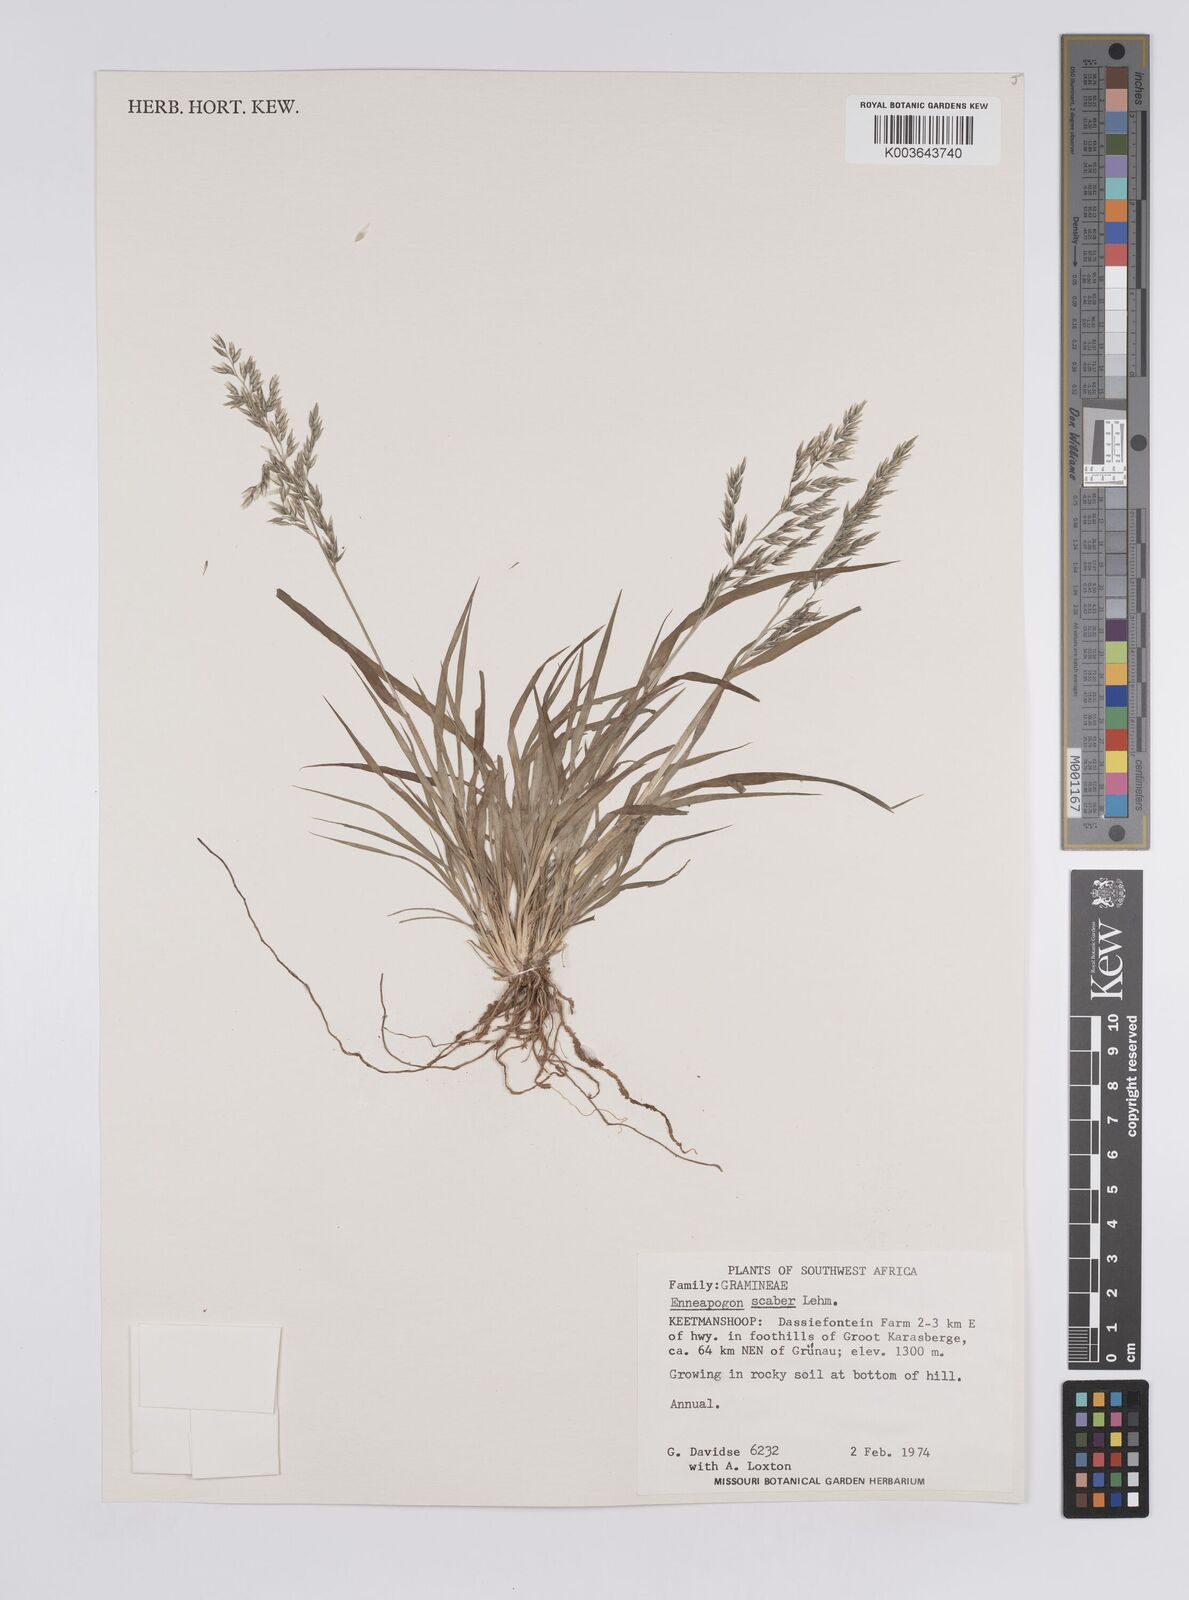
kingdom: Plantae
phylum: Tracheophyta
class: Liliopsida
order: Poales
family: Poaceae
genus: Enneapogon
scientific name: Enneapogon scaber
